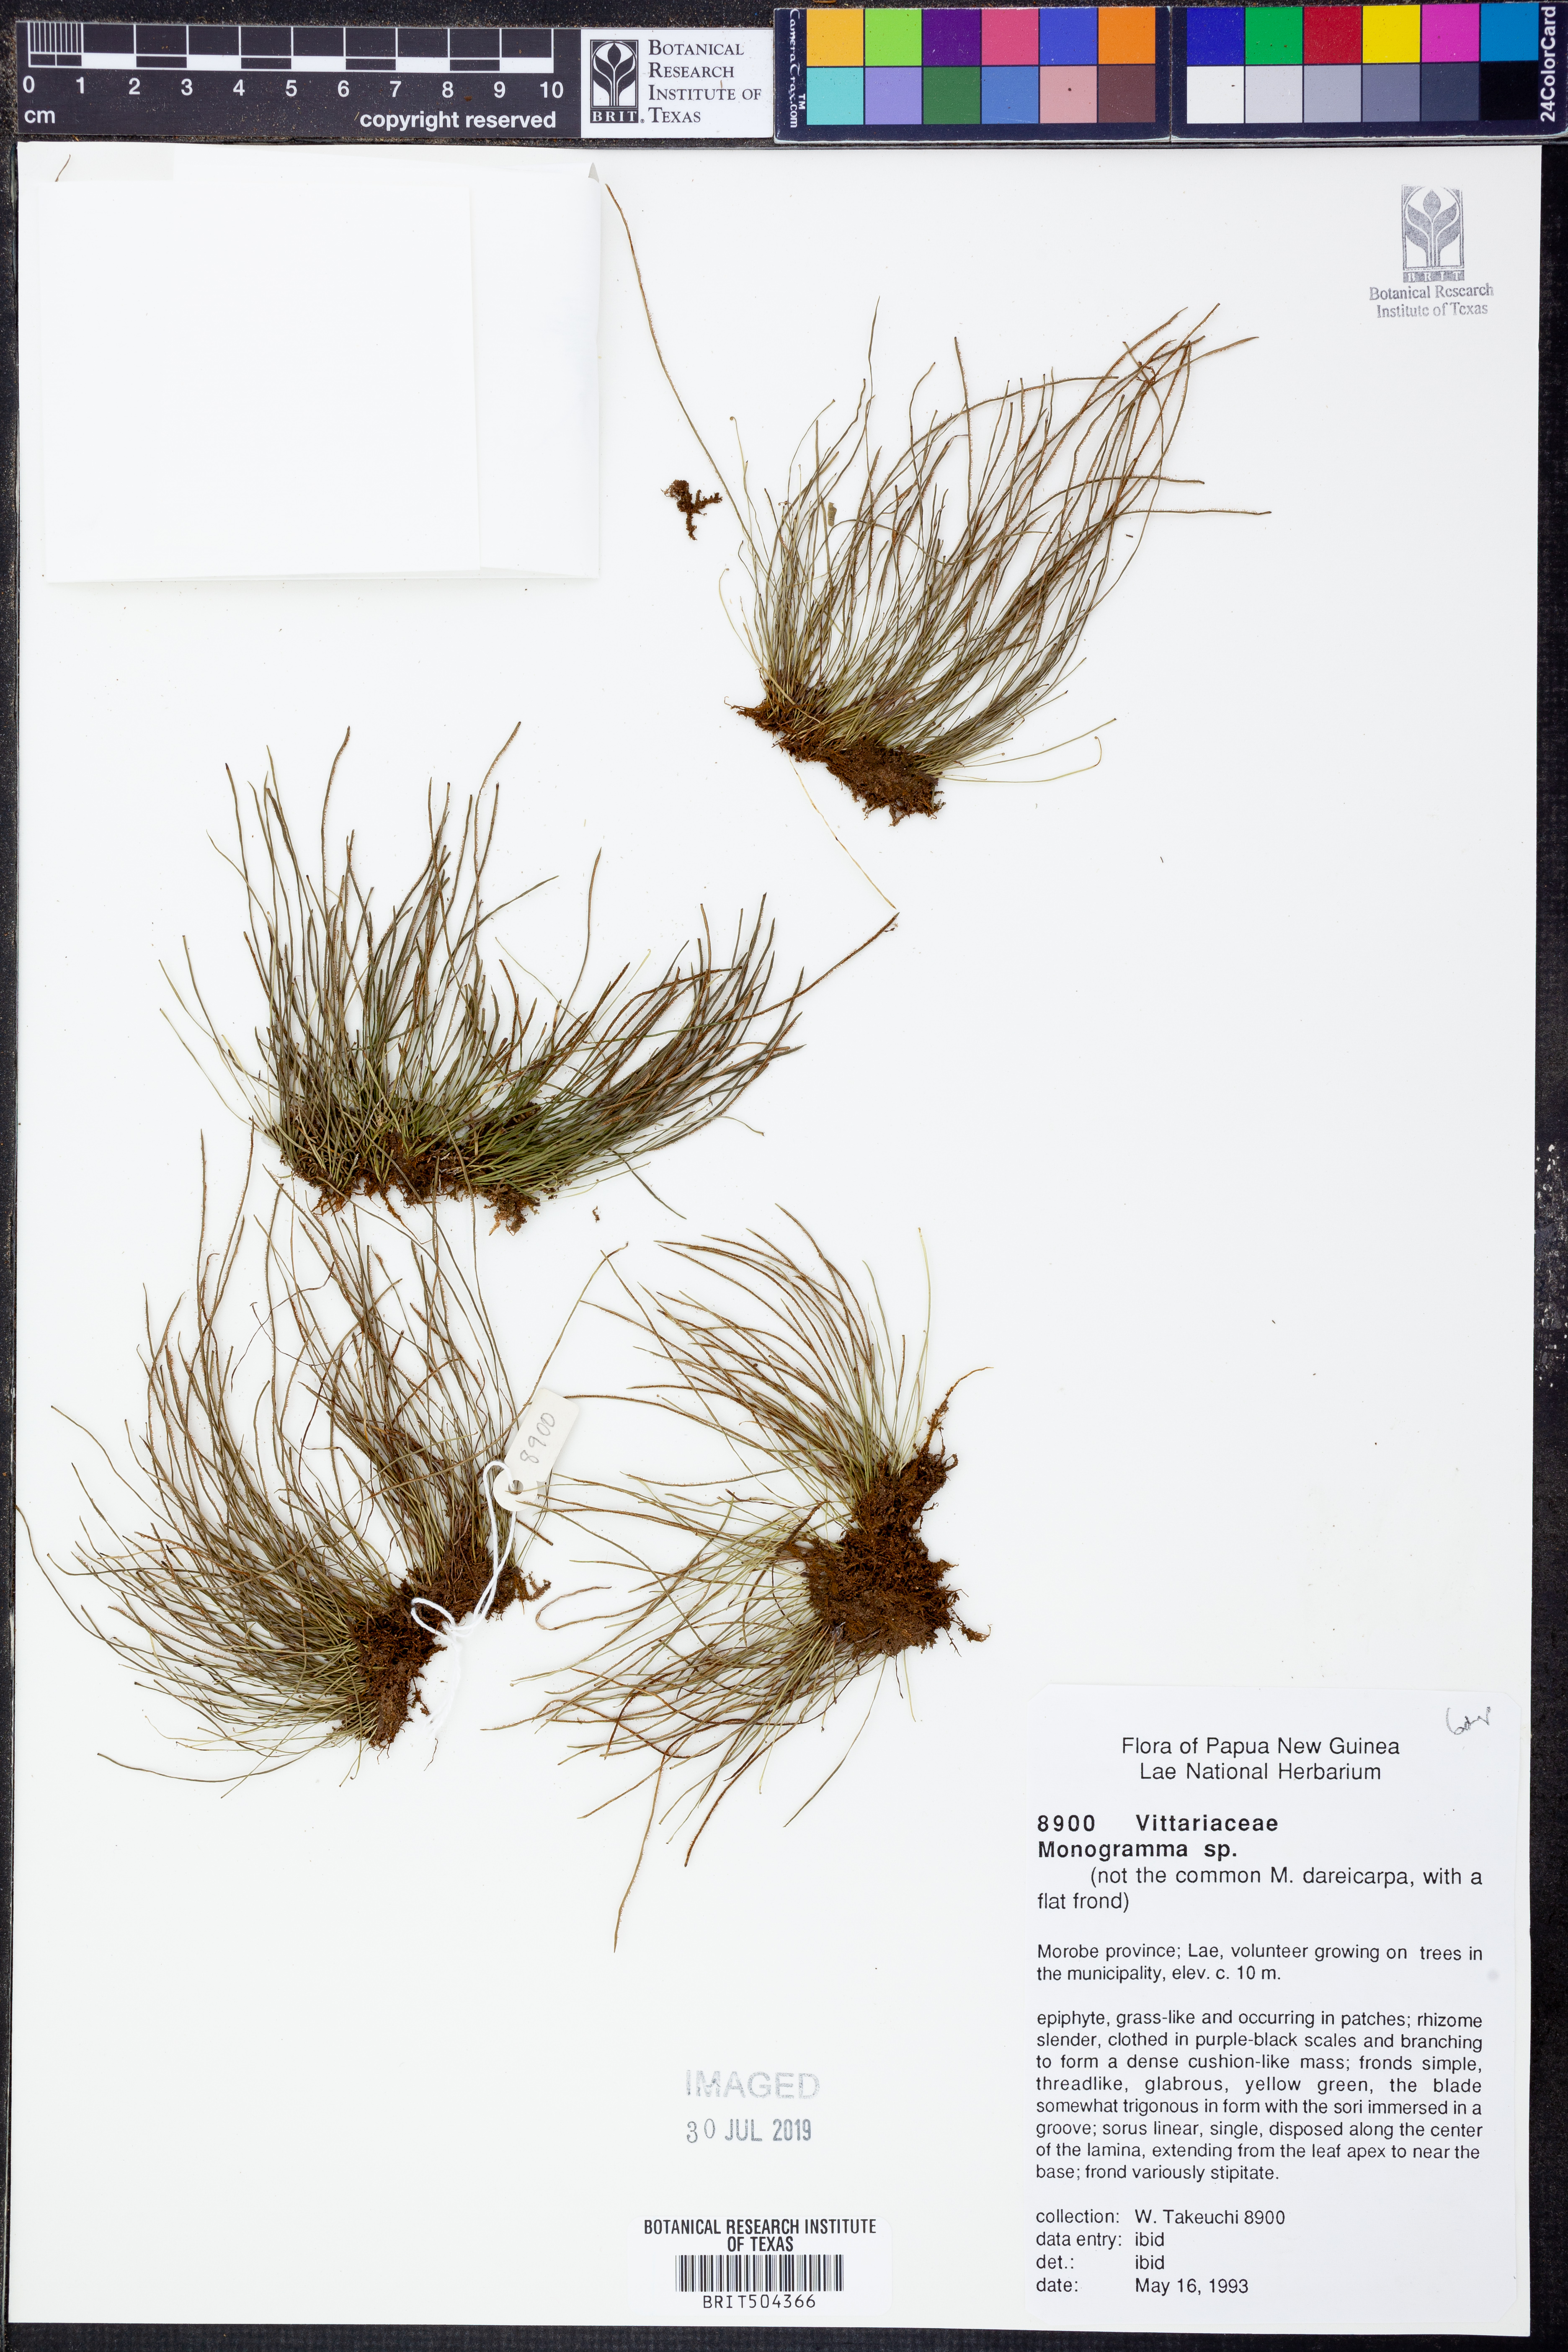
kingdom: Plantae
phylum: Tracheophyta
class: Polypodiopsida
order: Polypodiales
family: Pteridaceae
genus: Haplopteris
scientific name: Haplopteris
